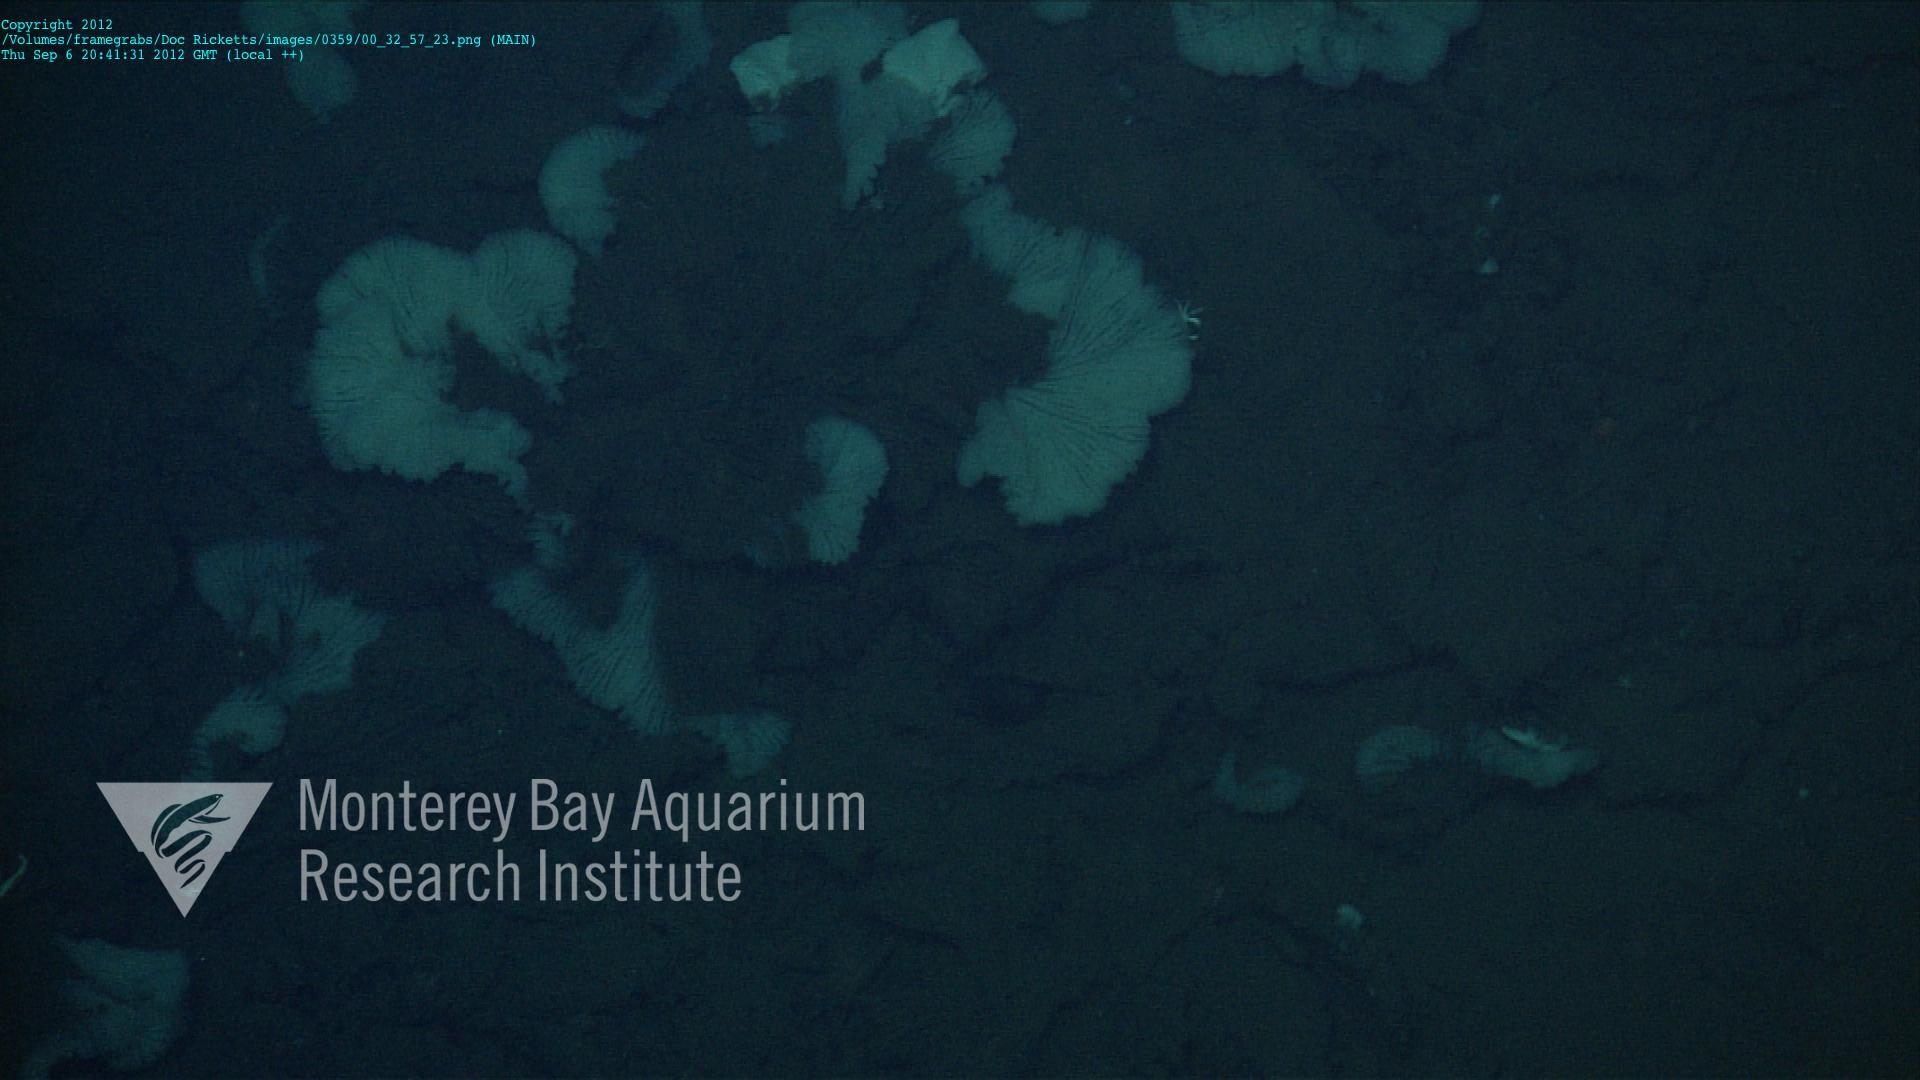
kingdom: Animalia
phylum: Porifera
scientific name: Porifera
